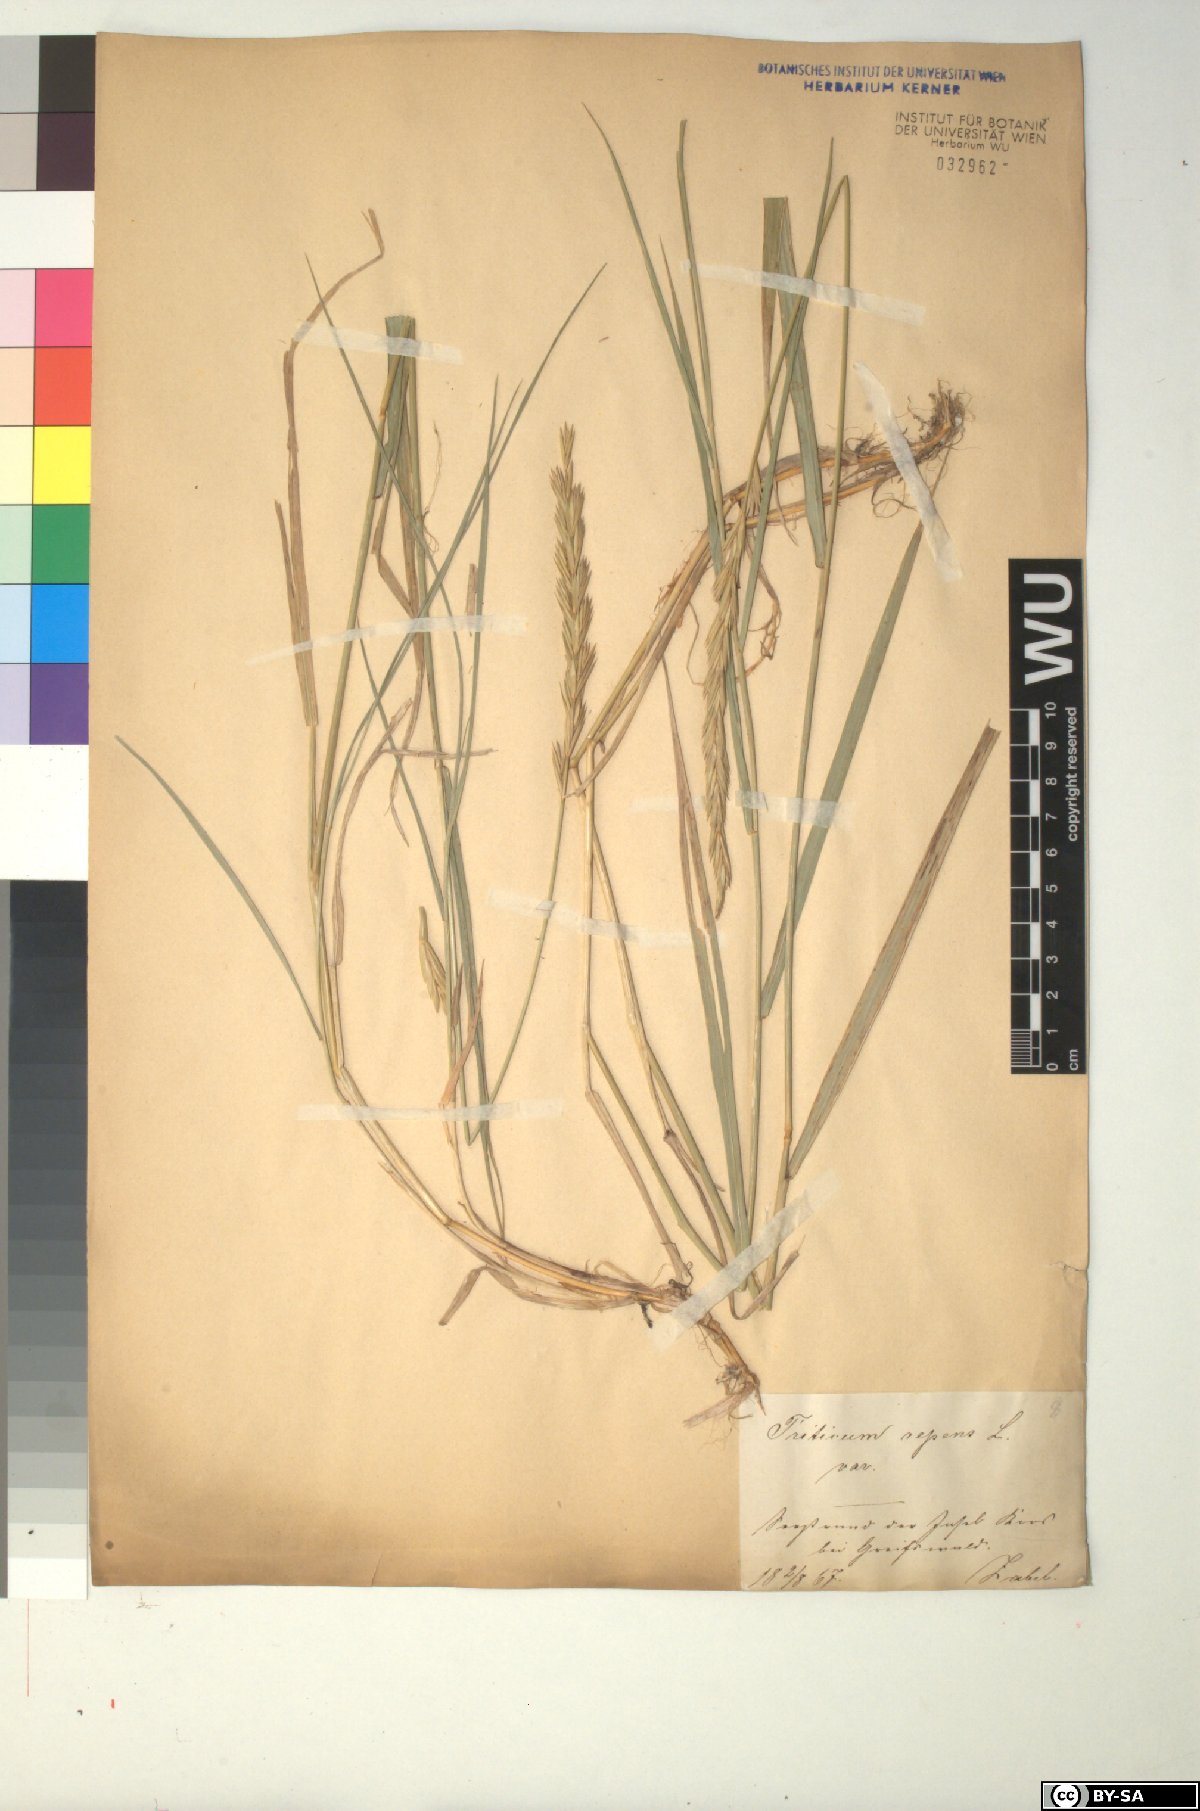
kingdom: Plantae
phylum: Tracheophyta
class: Liliopsida
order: Poales
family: Poaceae
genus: Elymus
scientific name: Elymus repens
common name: Quackgrass
